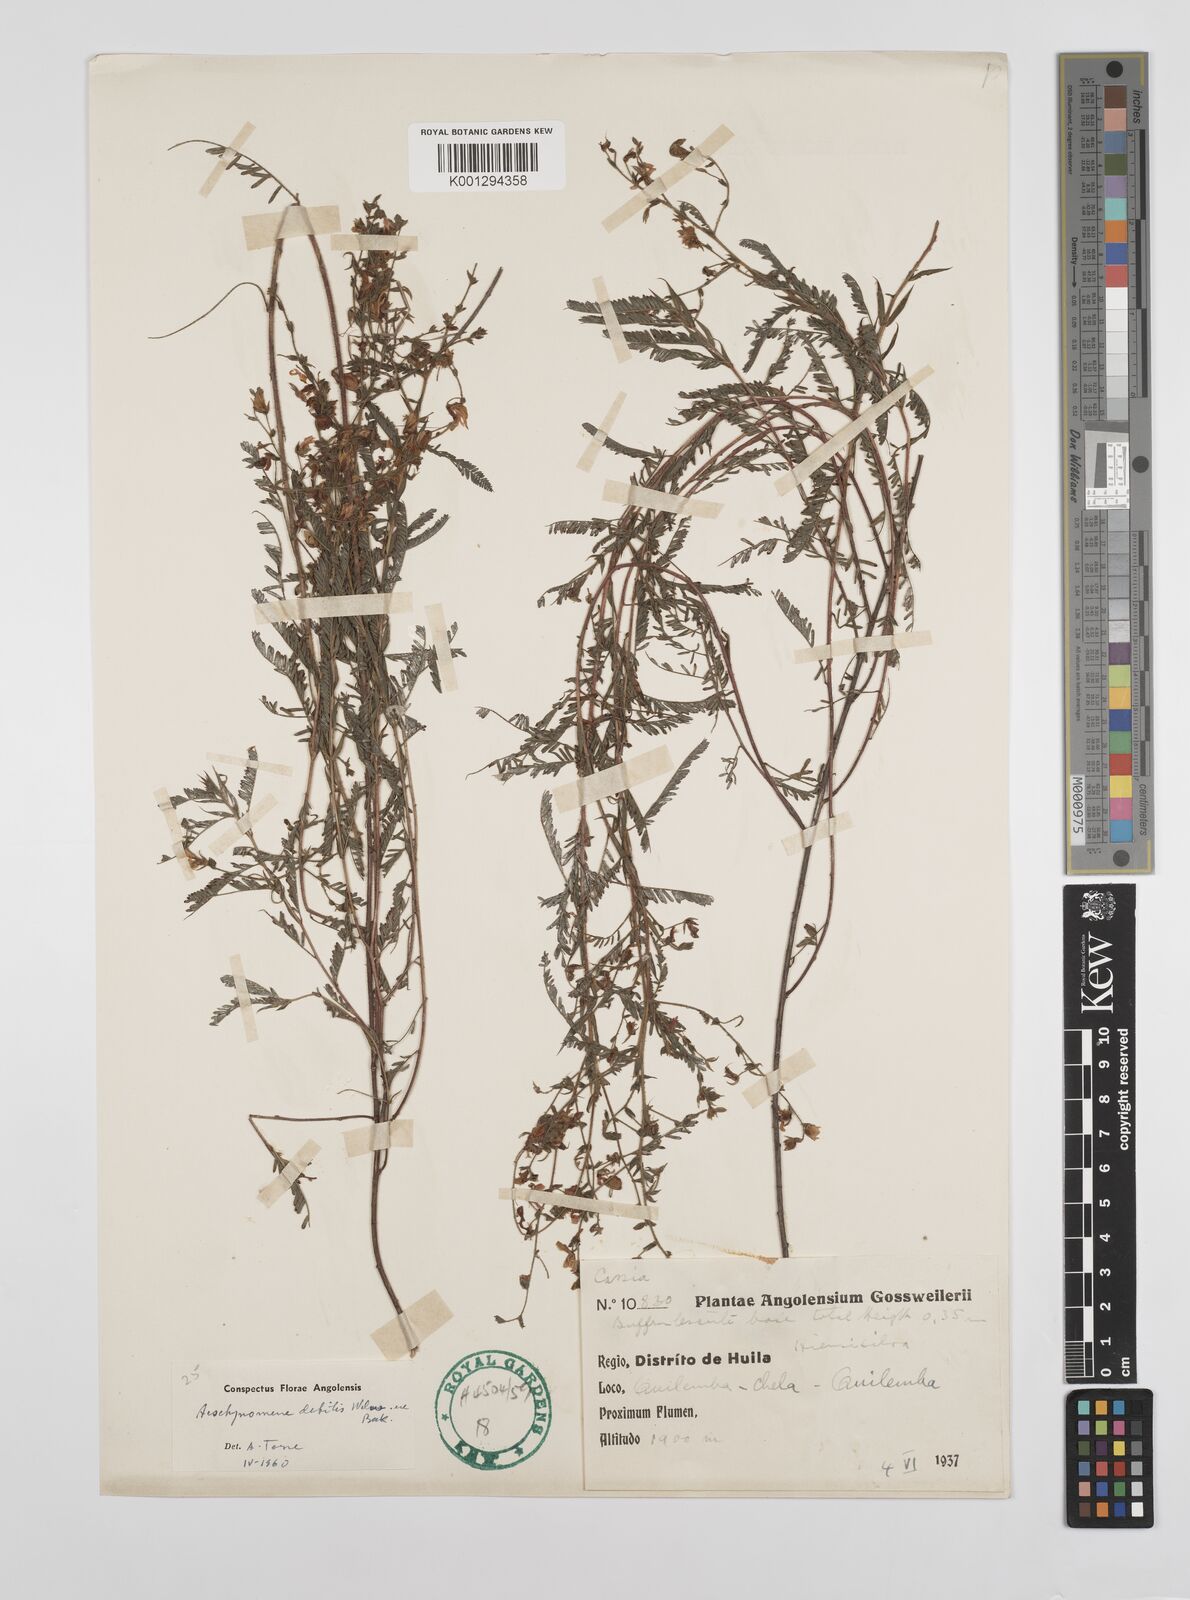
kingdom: Plantae
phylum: Tracheophyta
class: Magnoliopsida
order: Fabales
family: Fabaceae
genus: Aeschynomene
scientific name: Aeschynomene debilis
